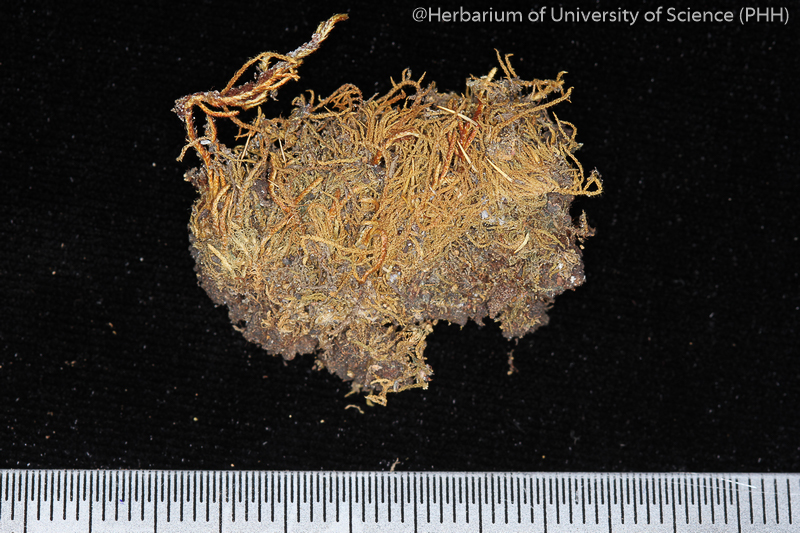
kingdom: Plantae
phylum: Bryophyta
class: Bryopsida
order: Hypnales
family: Leskeaceae
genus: Haplocladium
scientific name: Haplocladium microphyllum
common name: Tiny-leaved haplocladium
